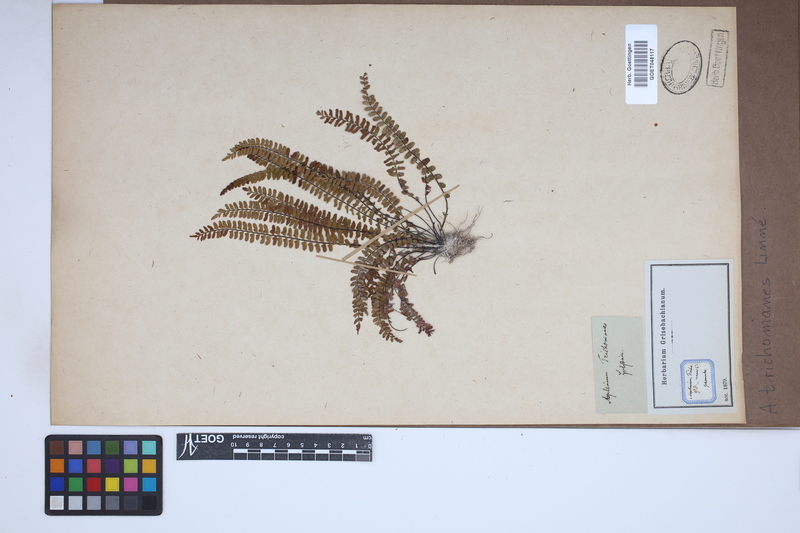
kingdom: Plantae
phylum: Tracheophyta
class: Polypodiopsida
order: Polypodiales
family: Aspleniaceae
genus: Asplenium
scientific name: Asplenium trichomanes
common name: Maidenhair spleenwort
